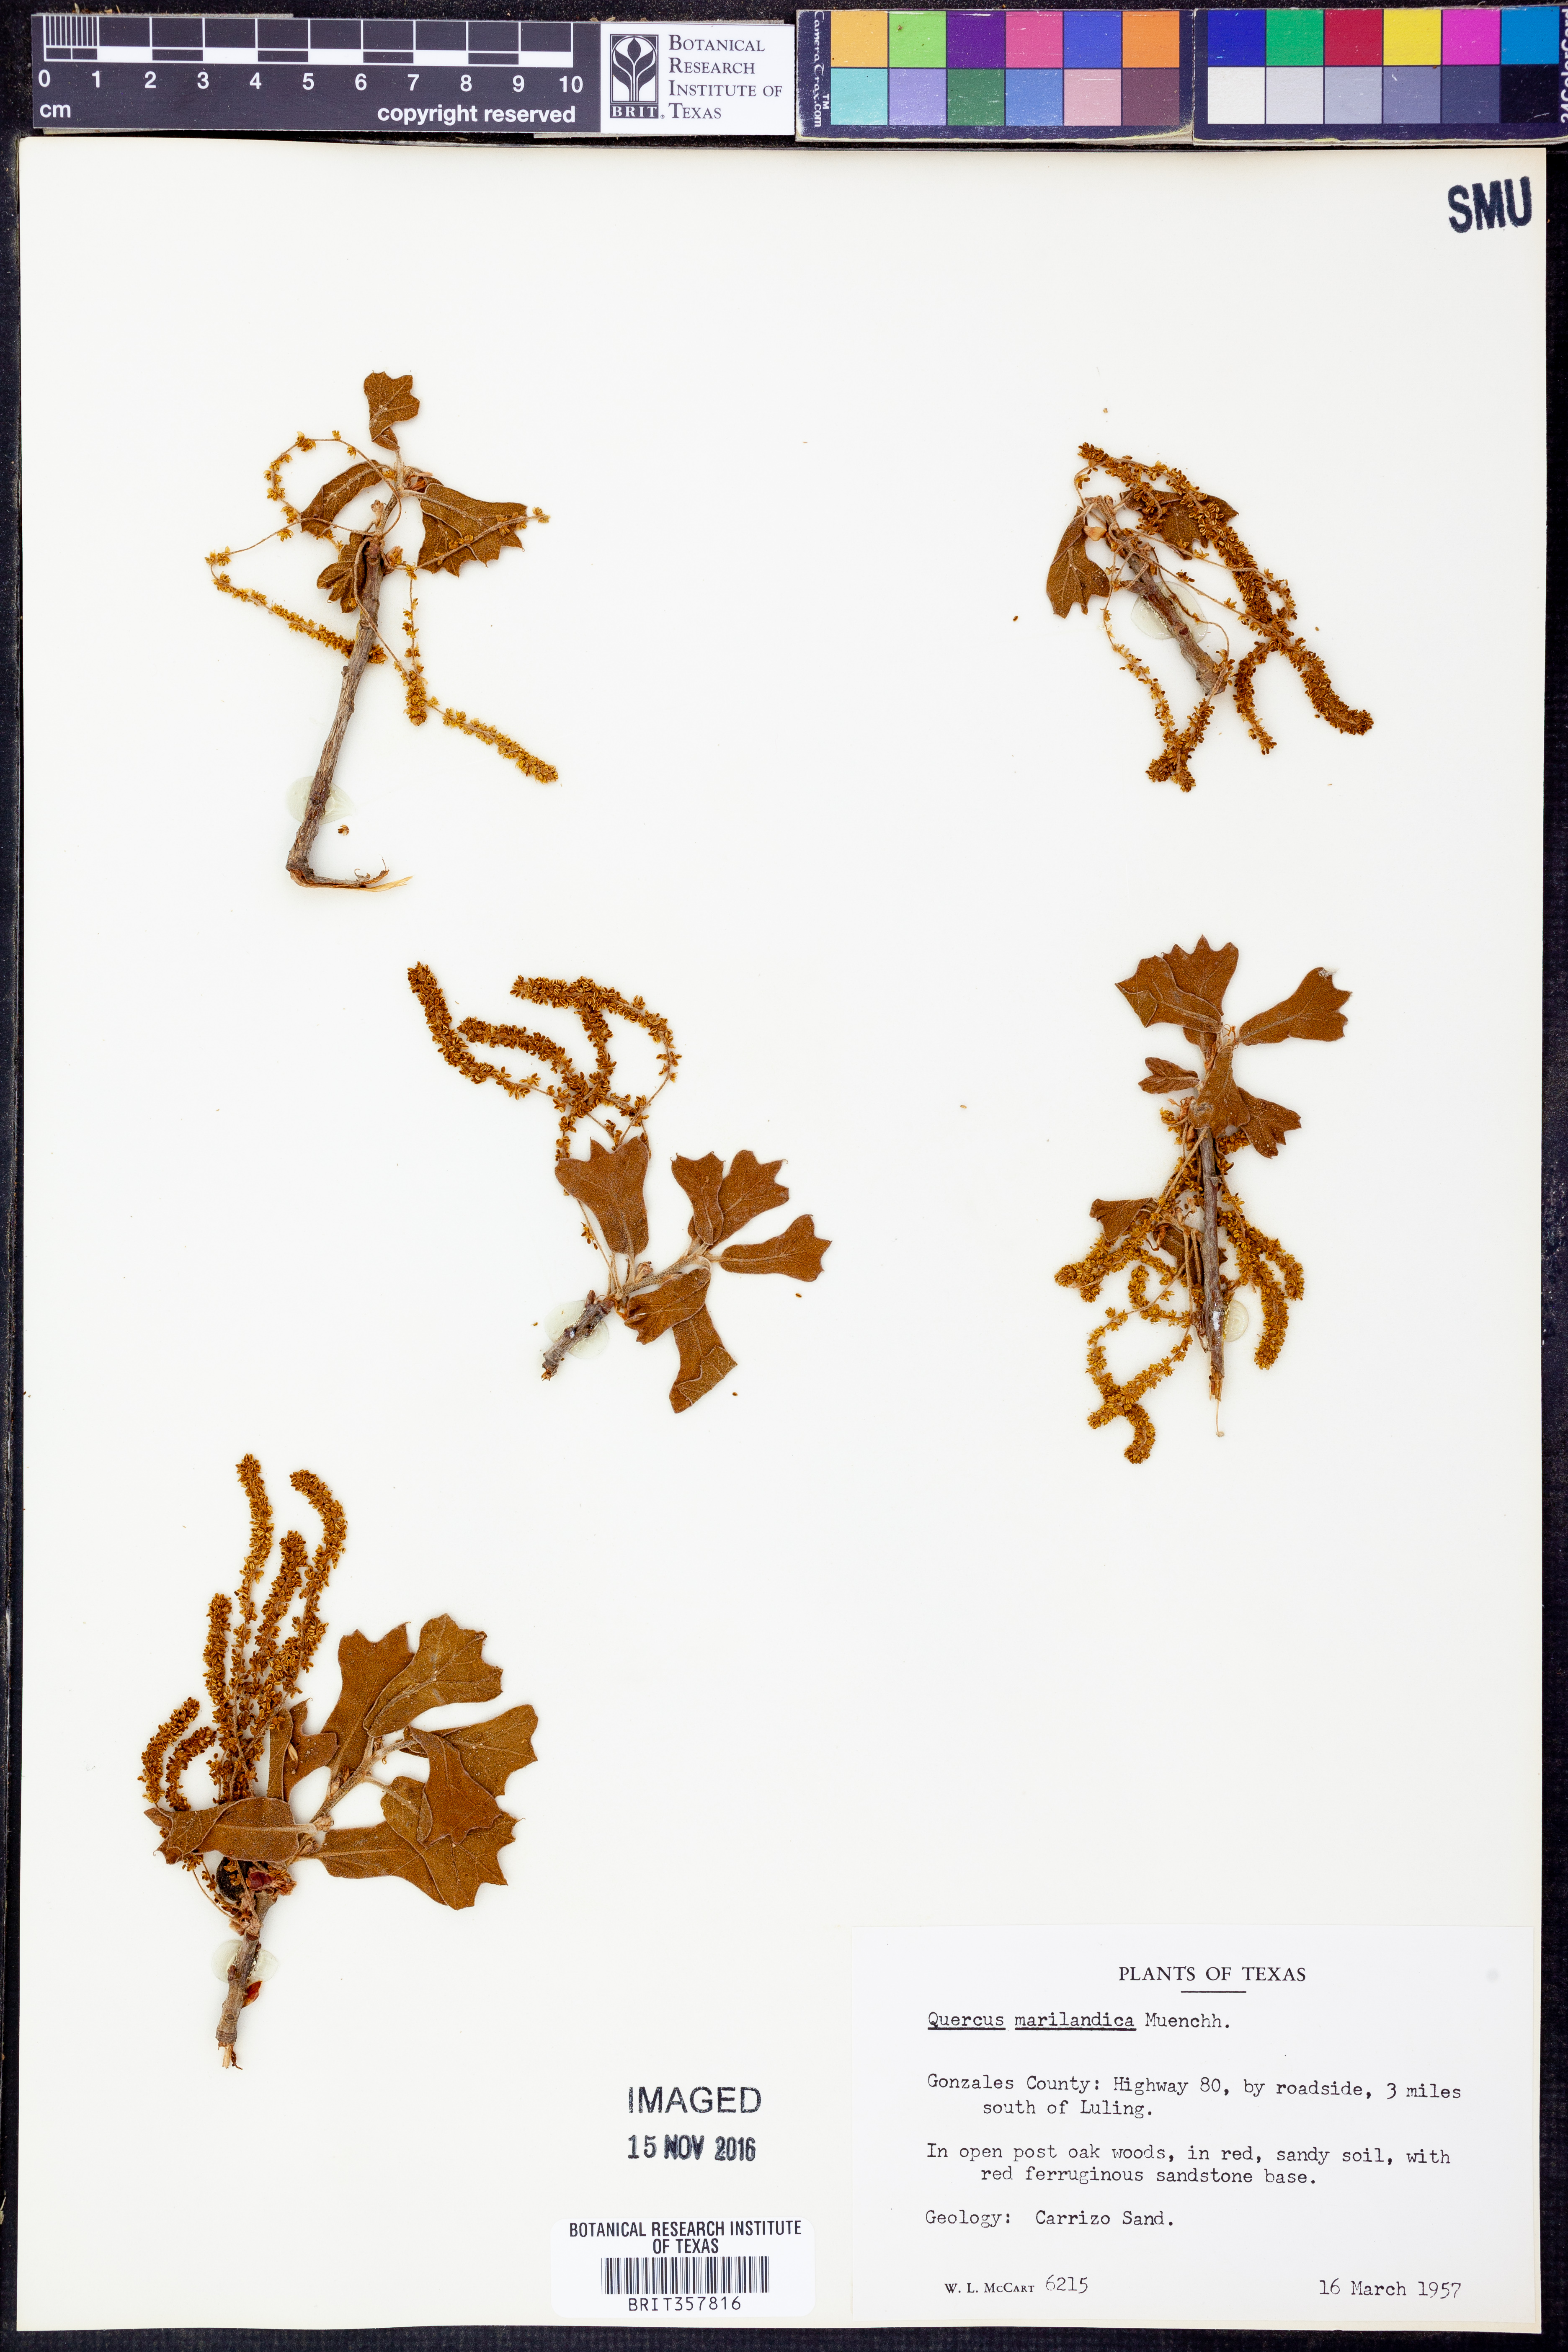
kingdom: Plantae
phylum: Tracheophyta
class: Magnoliopsida
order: Fagales
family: Fagaceae
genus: Quercus
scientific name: Quercus marilandica
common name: Blackjack oak
